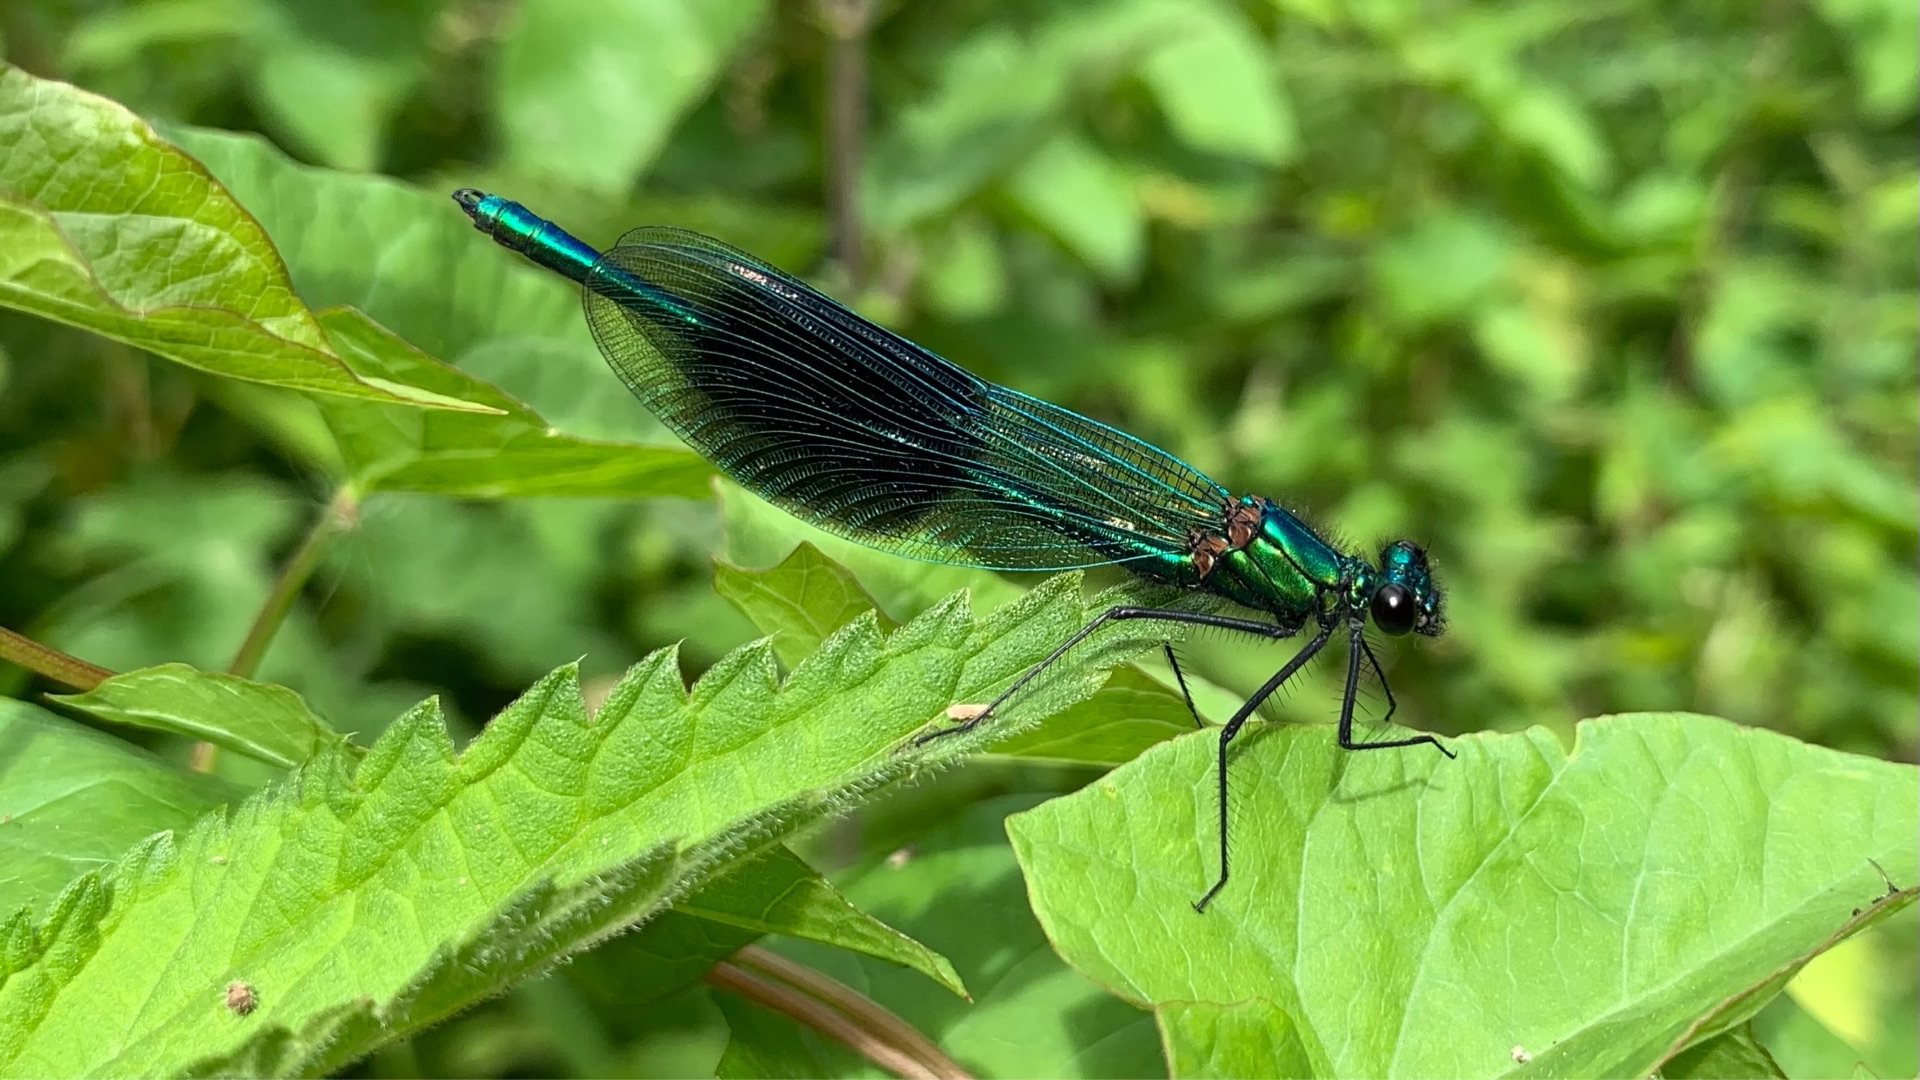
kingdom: Animalia
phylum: Arthropoda
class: Insecta
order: Odonata
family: Calopterygidae
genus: Calopteryx
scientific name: Calopteryx splendens
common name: Blåbåndet pragtvandnymfe
